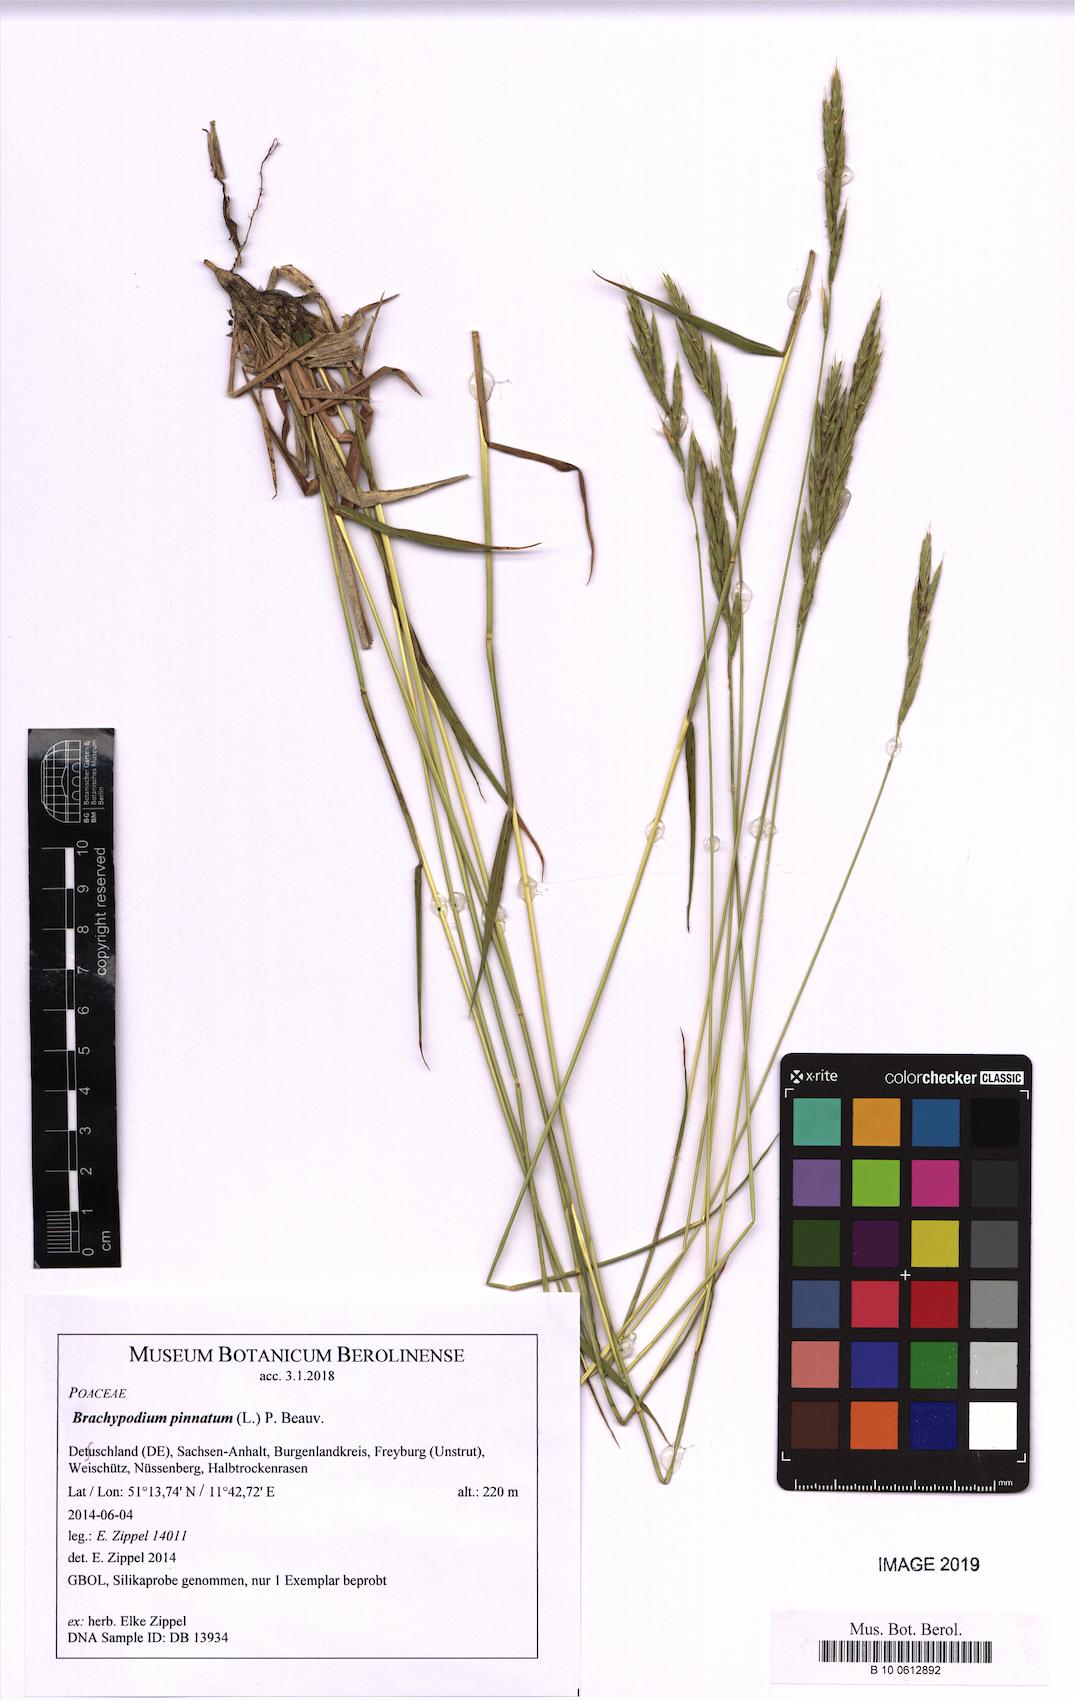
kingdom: Plantae
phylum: Tracheophyta
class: Liliopsida
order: Poales
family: Poaceae
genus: Brachypodium
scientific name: Brachypodium pinnatum
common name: Tor grass
